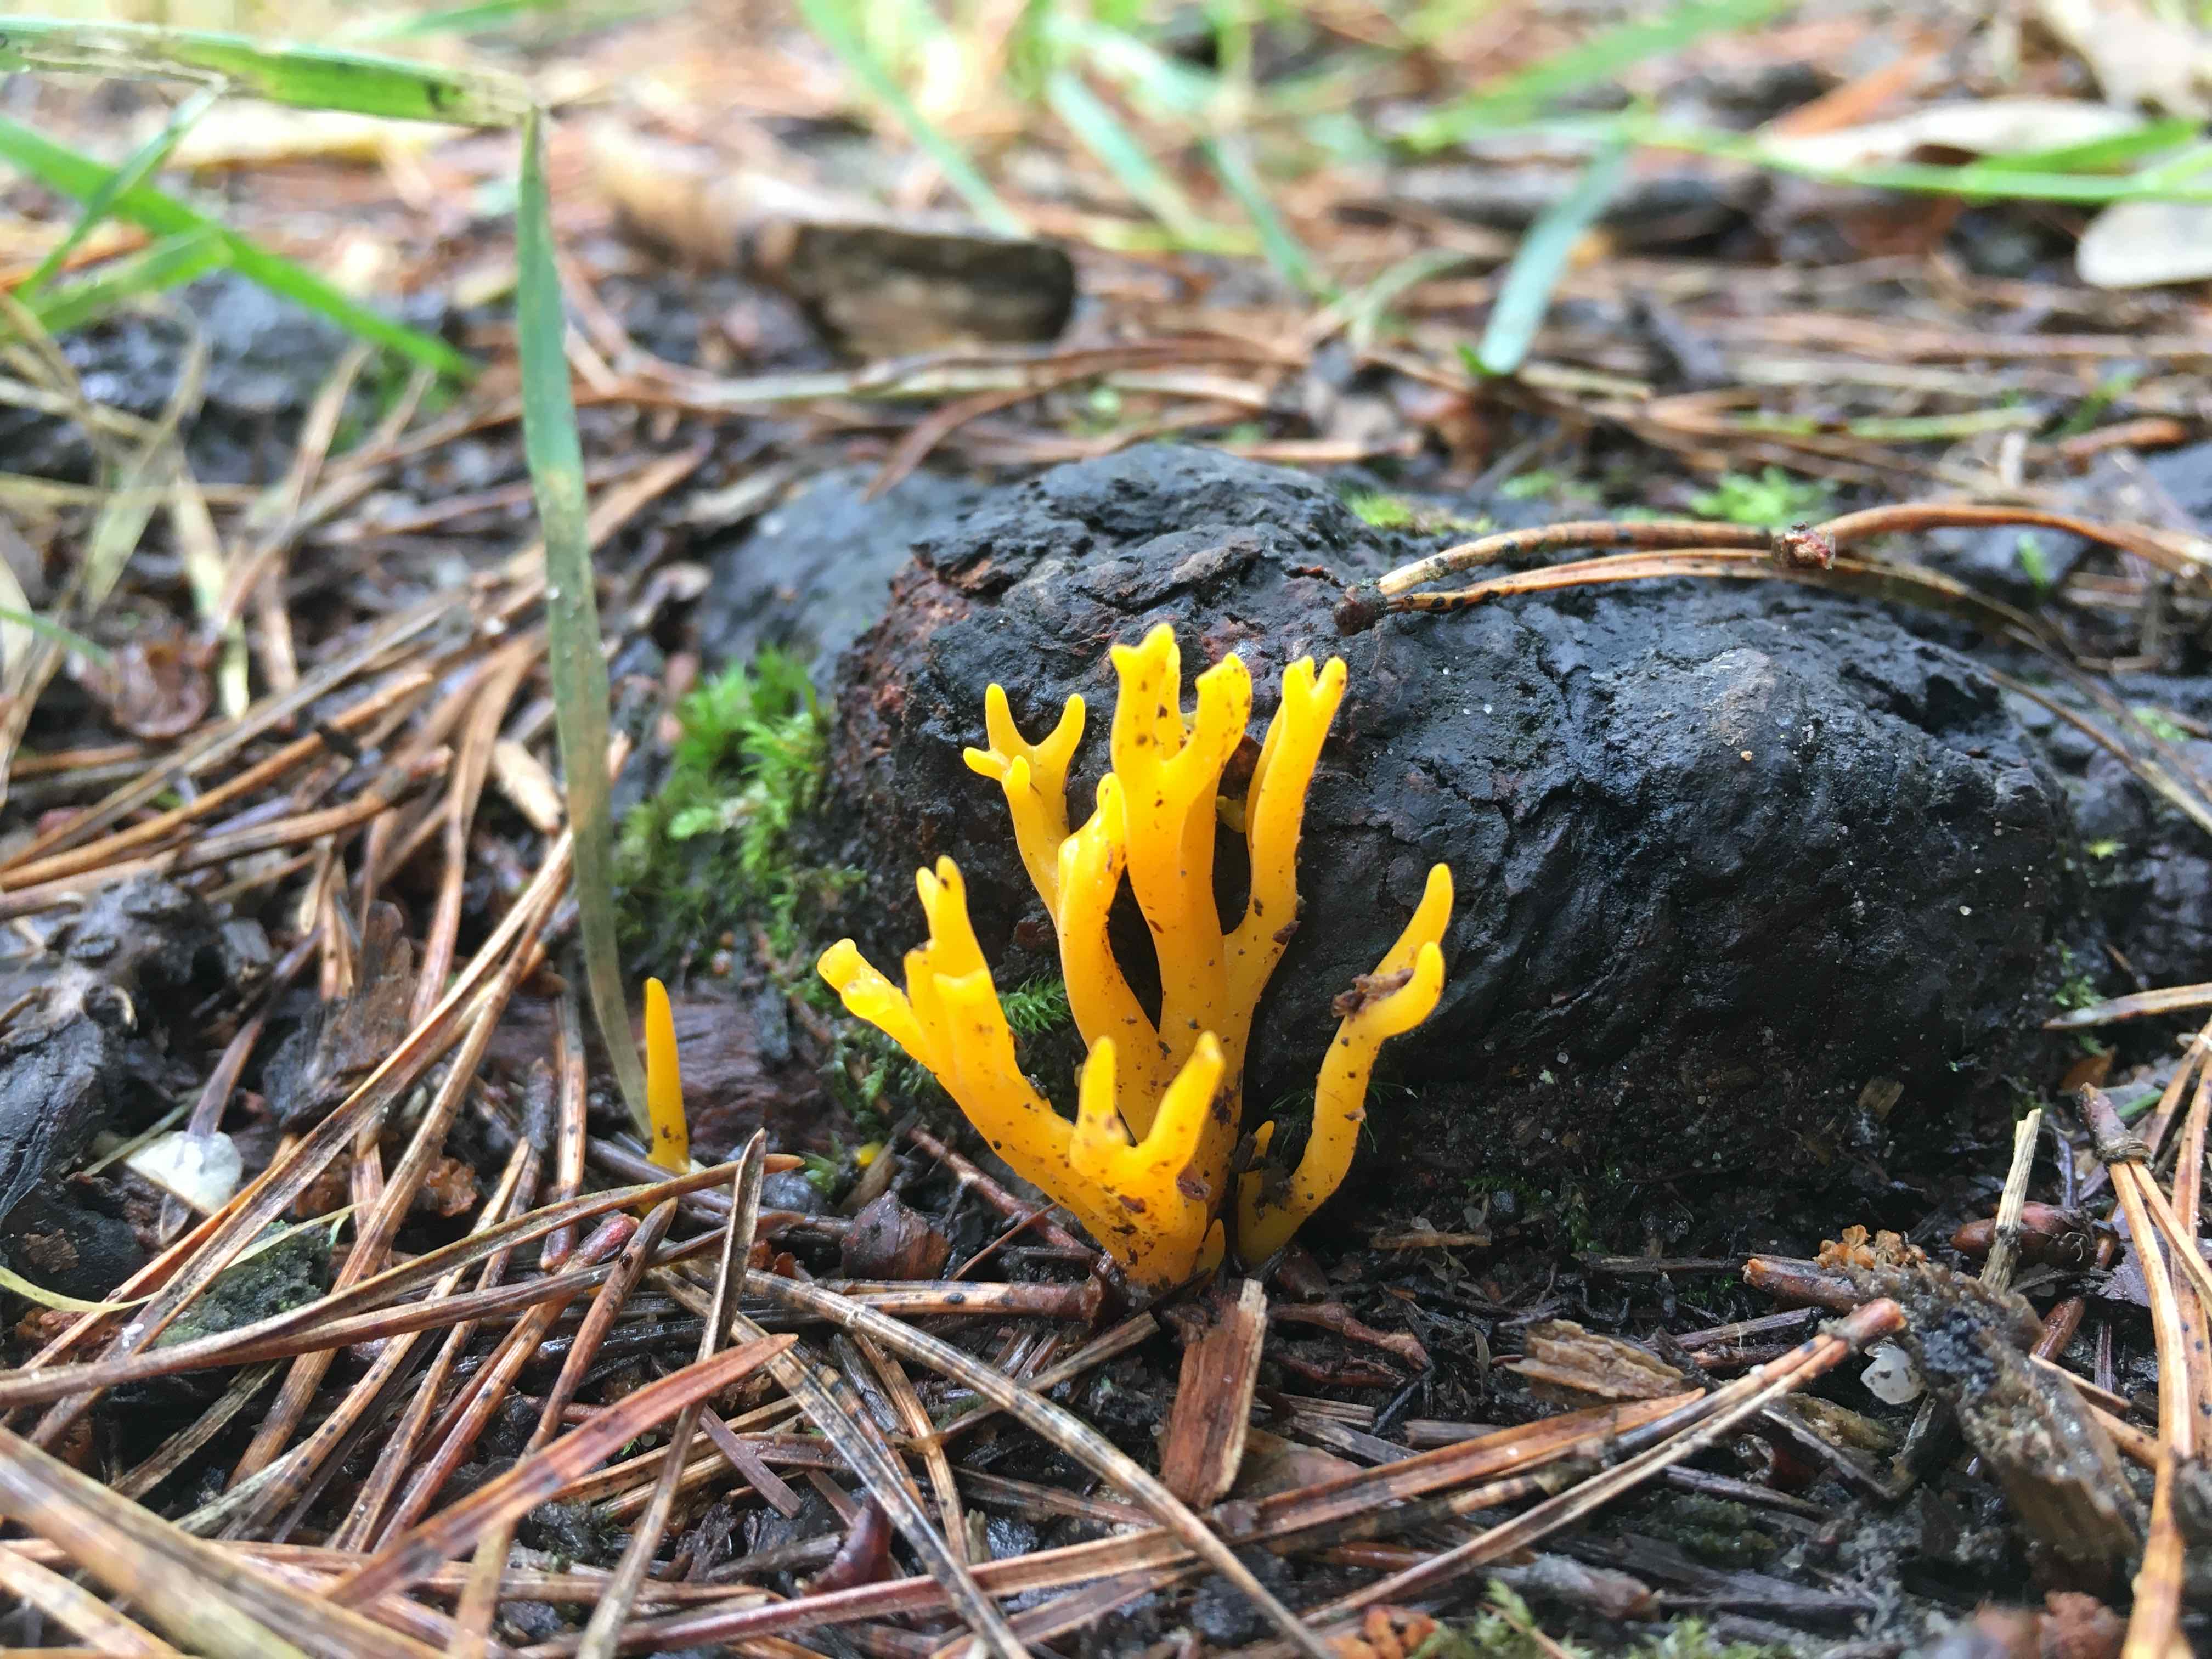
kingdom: Fungi
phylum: Basidiomycota
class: Dacrymycetes
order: Dacrymycetales
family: Dacrymycetaceae
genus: Calocera
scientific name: Calocera viscosa
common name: almindelig guldgaffel
